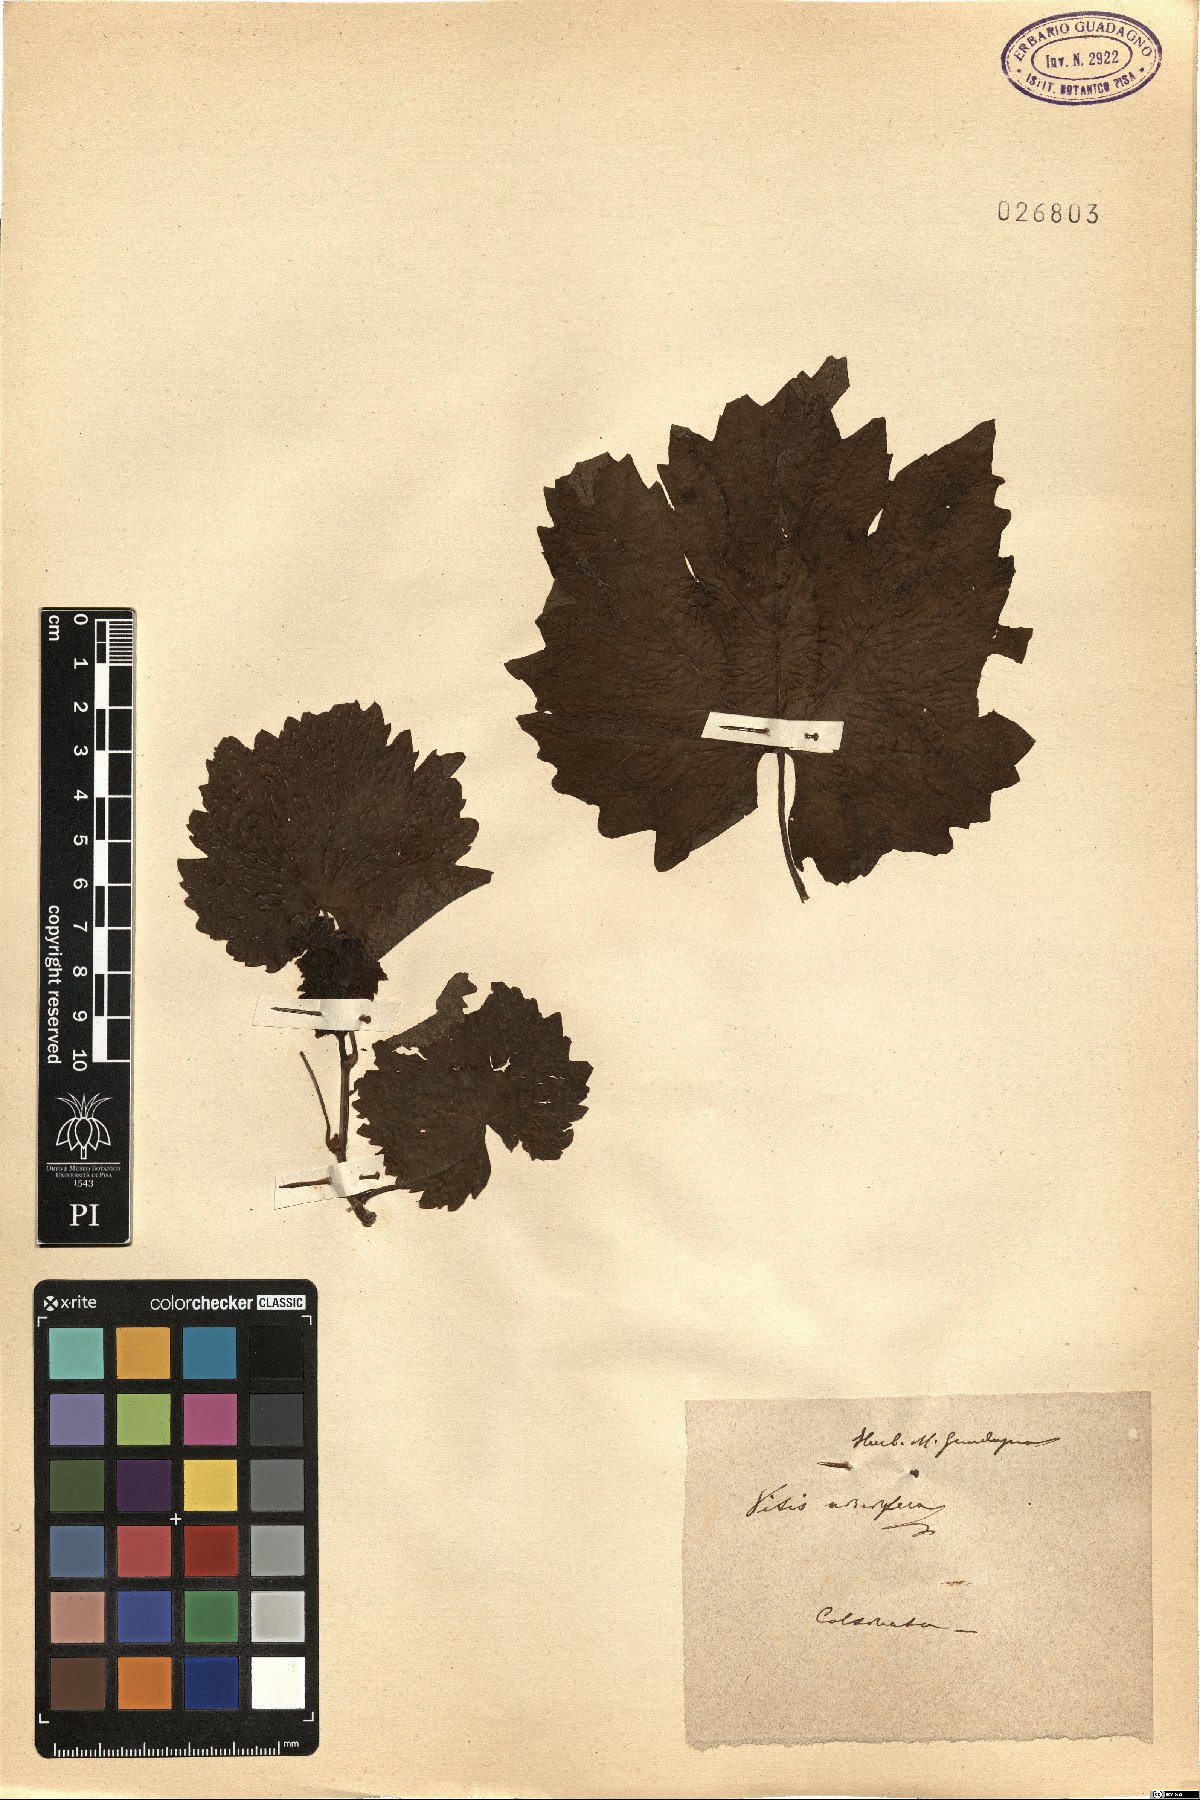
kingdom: Plantae
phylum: Tracheophyta
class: Magnoliopsida
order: Vitales
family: Vitaceae
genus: Vitis
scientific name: Vitis vinifera
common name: Grape-vine
